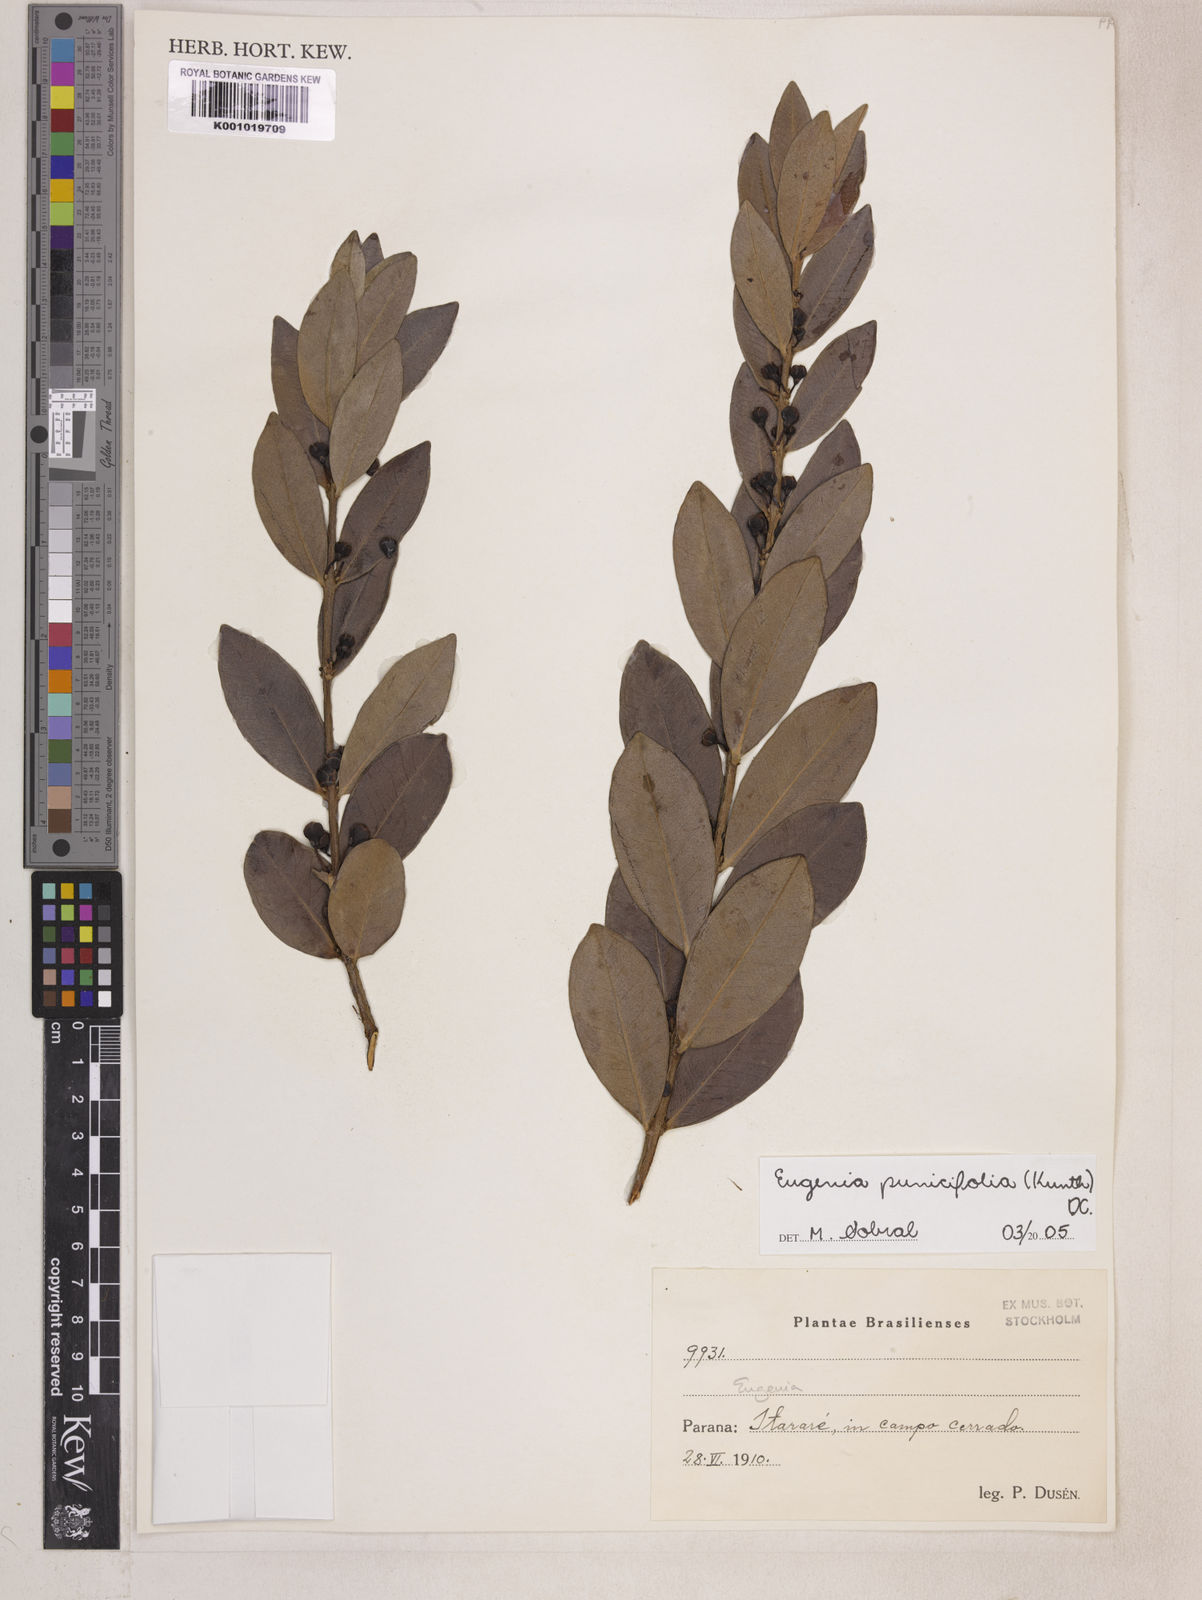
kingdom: Plantae
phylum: Tracheophyta
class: Magnoliopsida
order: Myrtales
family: Myrtaceae
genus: Eugenia
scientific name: Eugenia punicifolia
